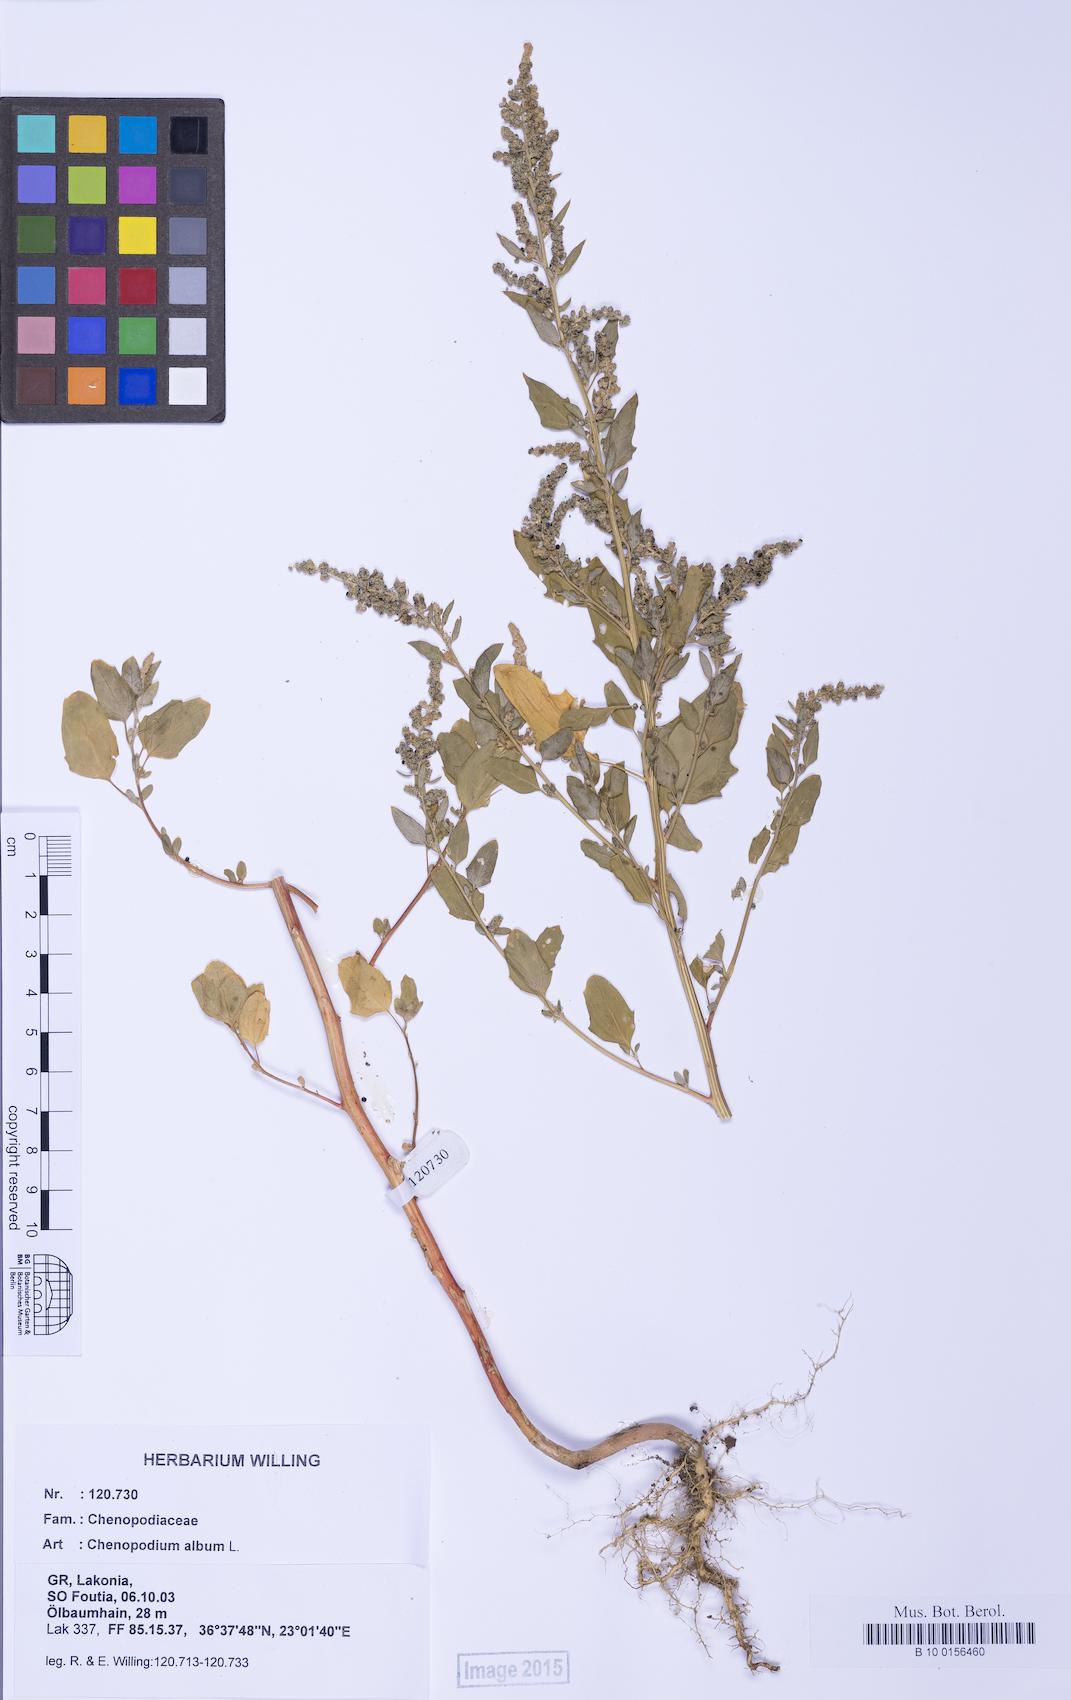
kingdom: Plantae
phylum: Tracheophyta
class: Magnoliopsida
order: Caryophyllales
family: Amaranthaceae
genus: Chenopodium
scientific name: Chenopodium album
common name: Fat-hen
